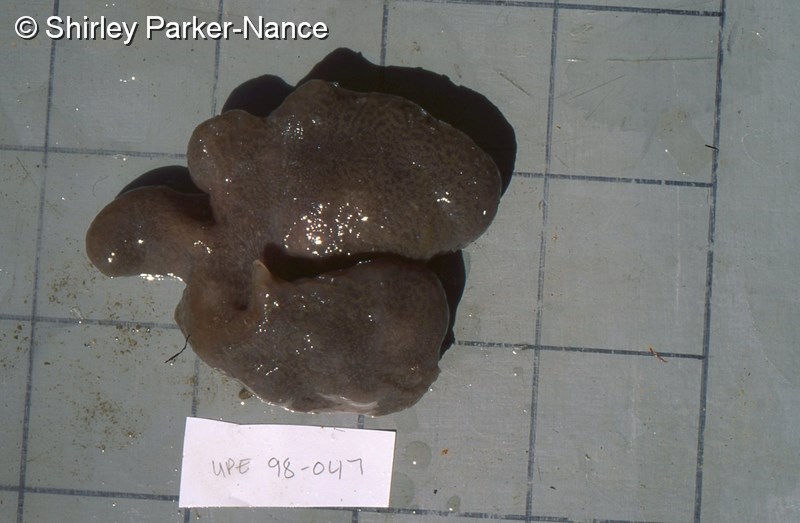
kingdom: Animalia
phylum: Chordata
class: Ascidiacea
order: Aplousobranchia
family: Polyclinidae
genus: Synoicum
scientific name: Synoicum
